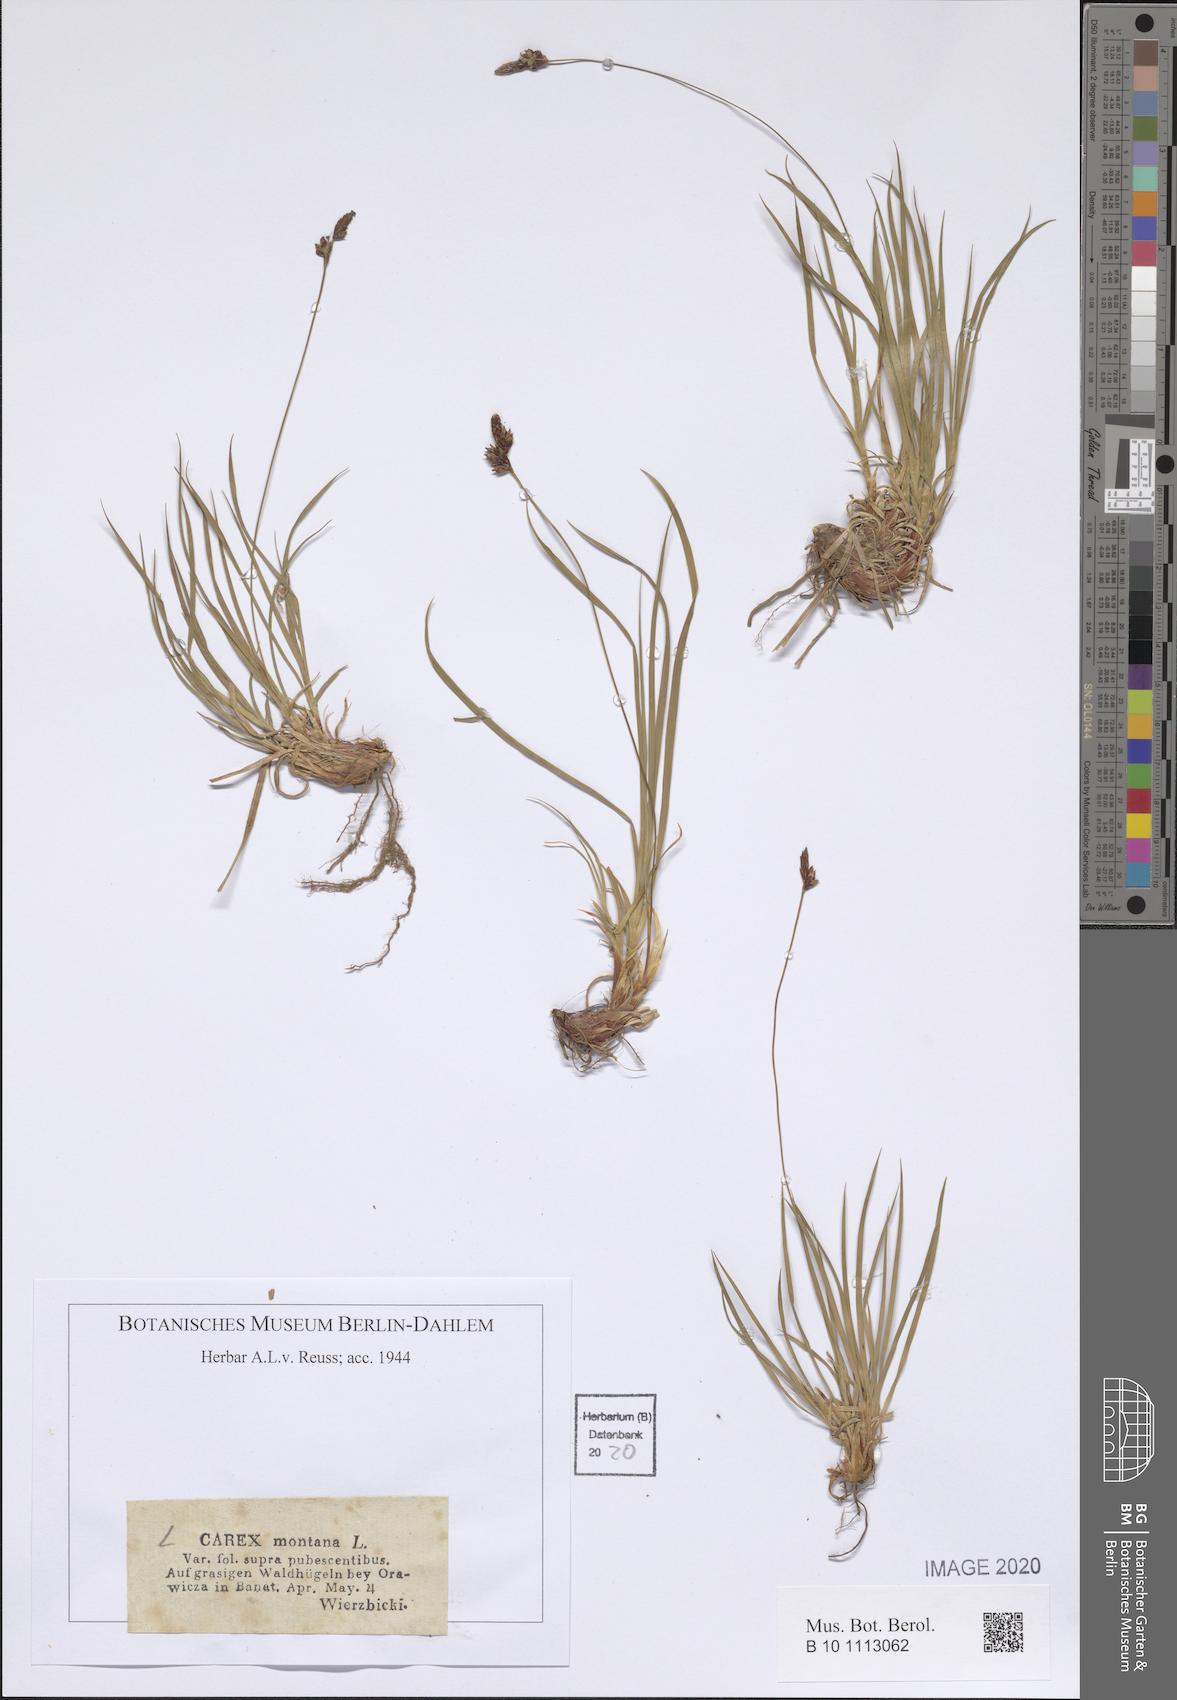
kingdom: Plantae
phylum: Tracheophyta
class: Liliopsida
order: Poales
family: Cyperaceae
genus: Carex
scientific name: Carex montana
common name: Soft-leaved sedge
